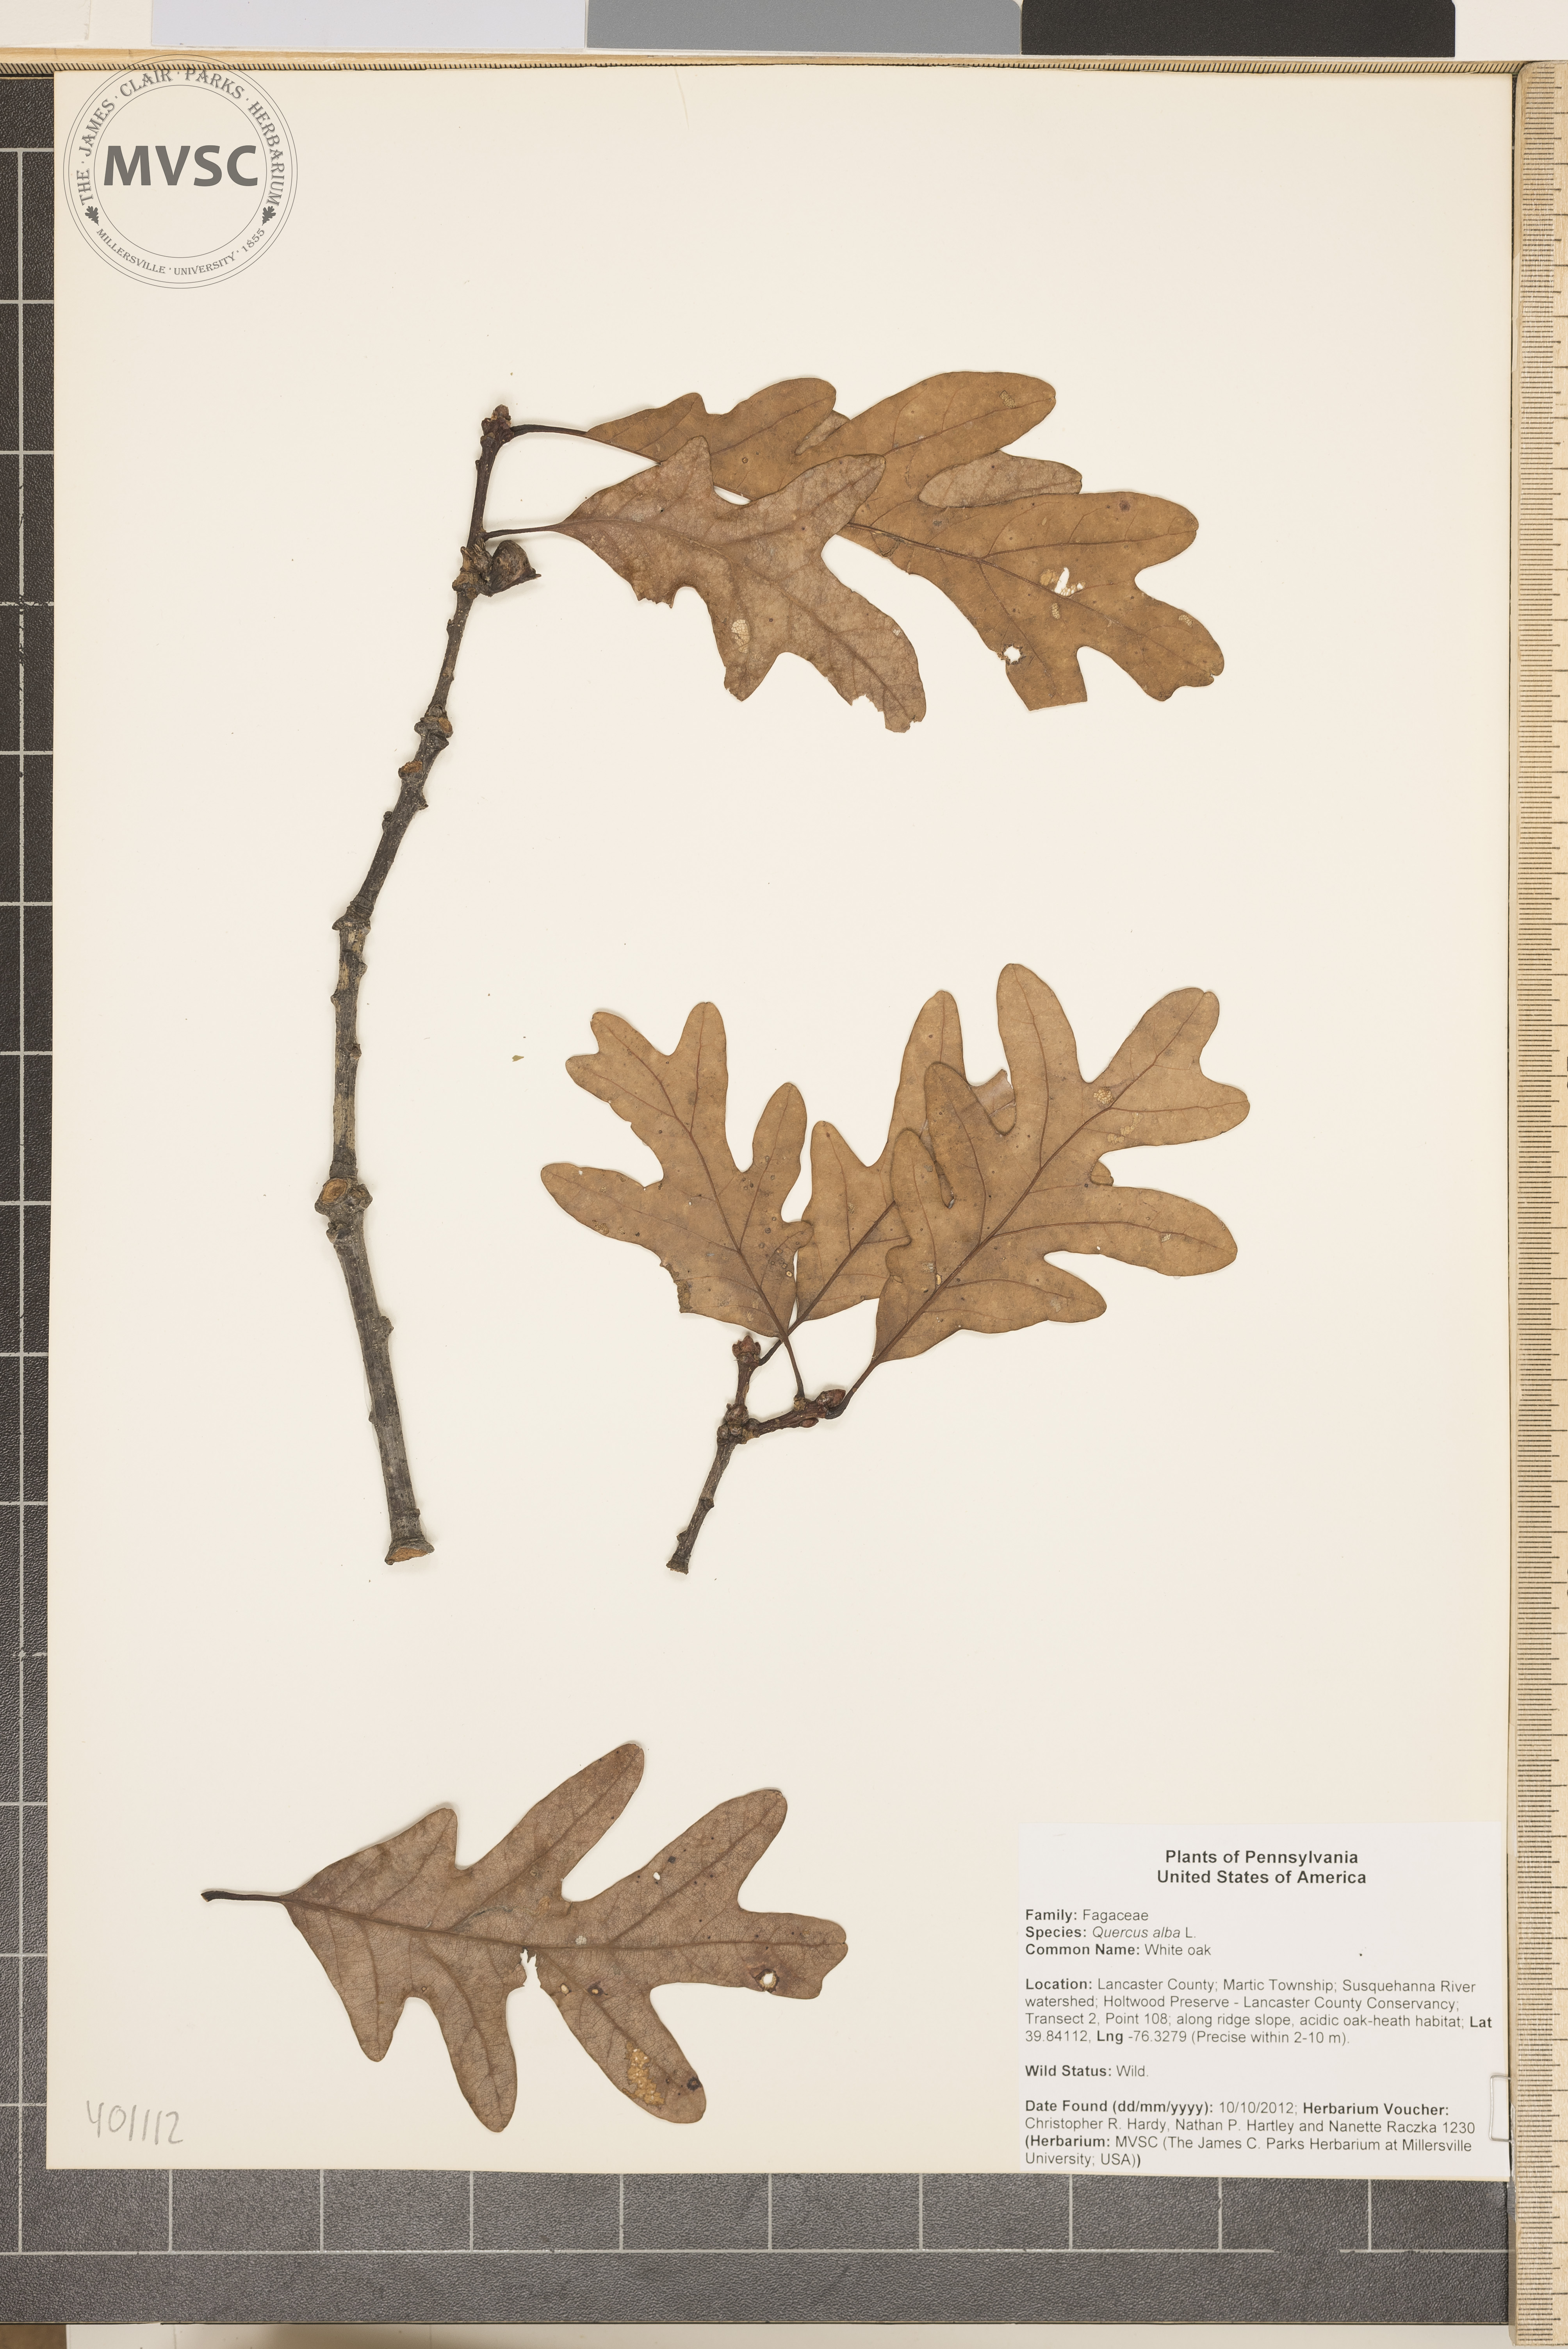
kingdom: Plantae
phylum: Tracheophyta
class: Magnoliopsida
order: Fagales
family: Fagaceae
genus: Quercus
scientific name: Quercus alba
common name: White oak
